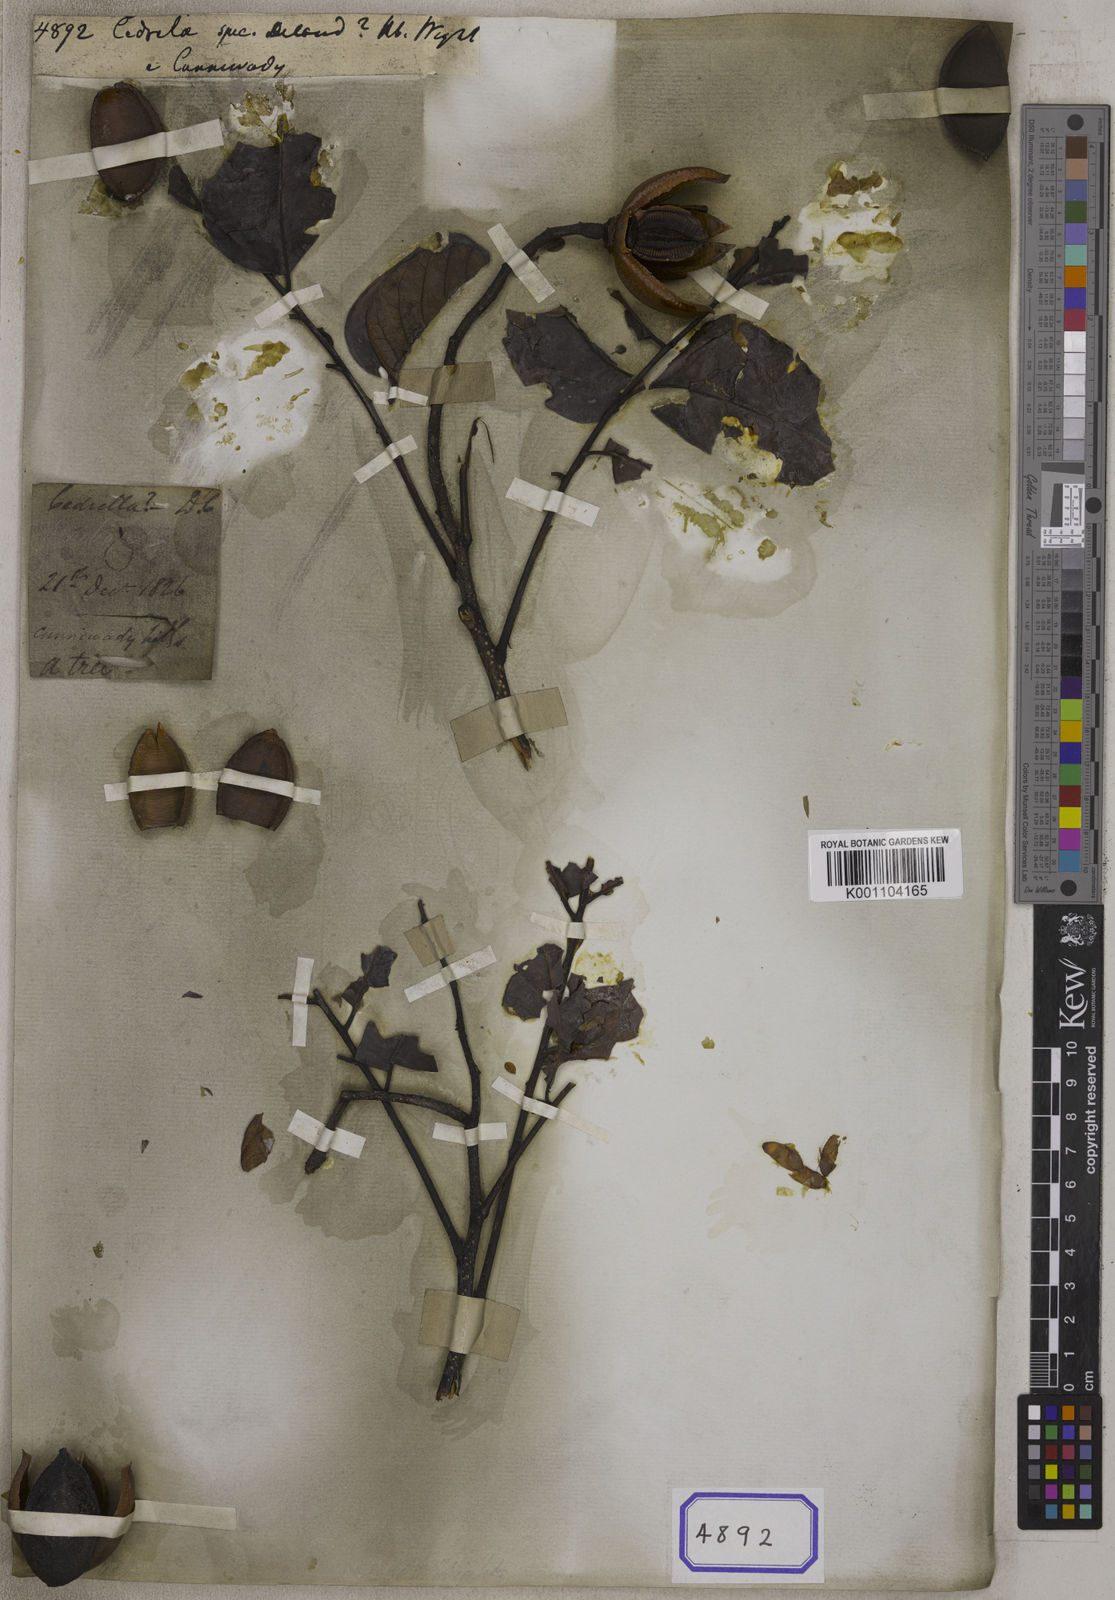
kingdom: Plantae
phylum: Tracheophyta
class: Magnoliopsida
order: Sapindales
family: Meliaceae
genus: Cedrela
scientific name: Cedrela
